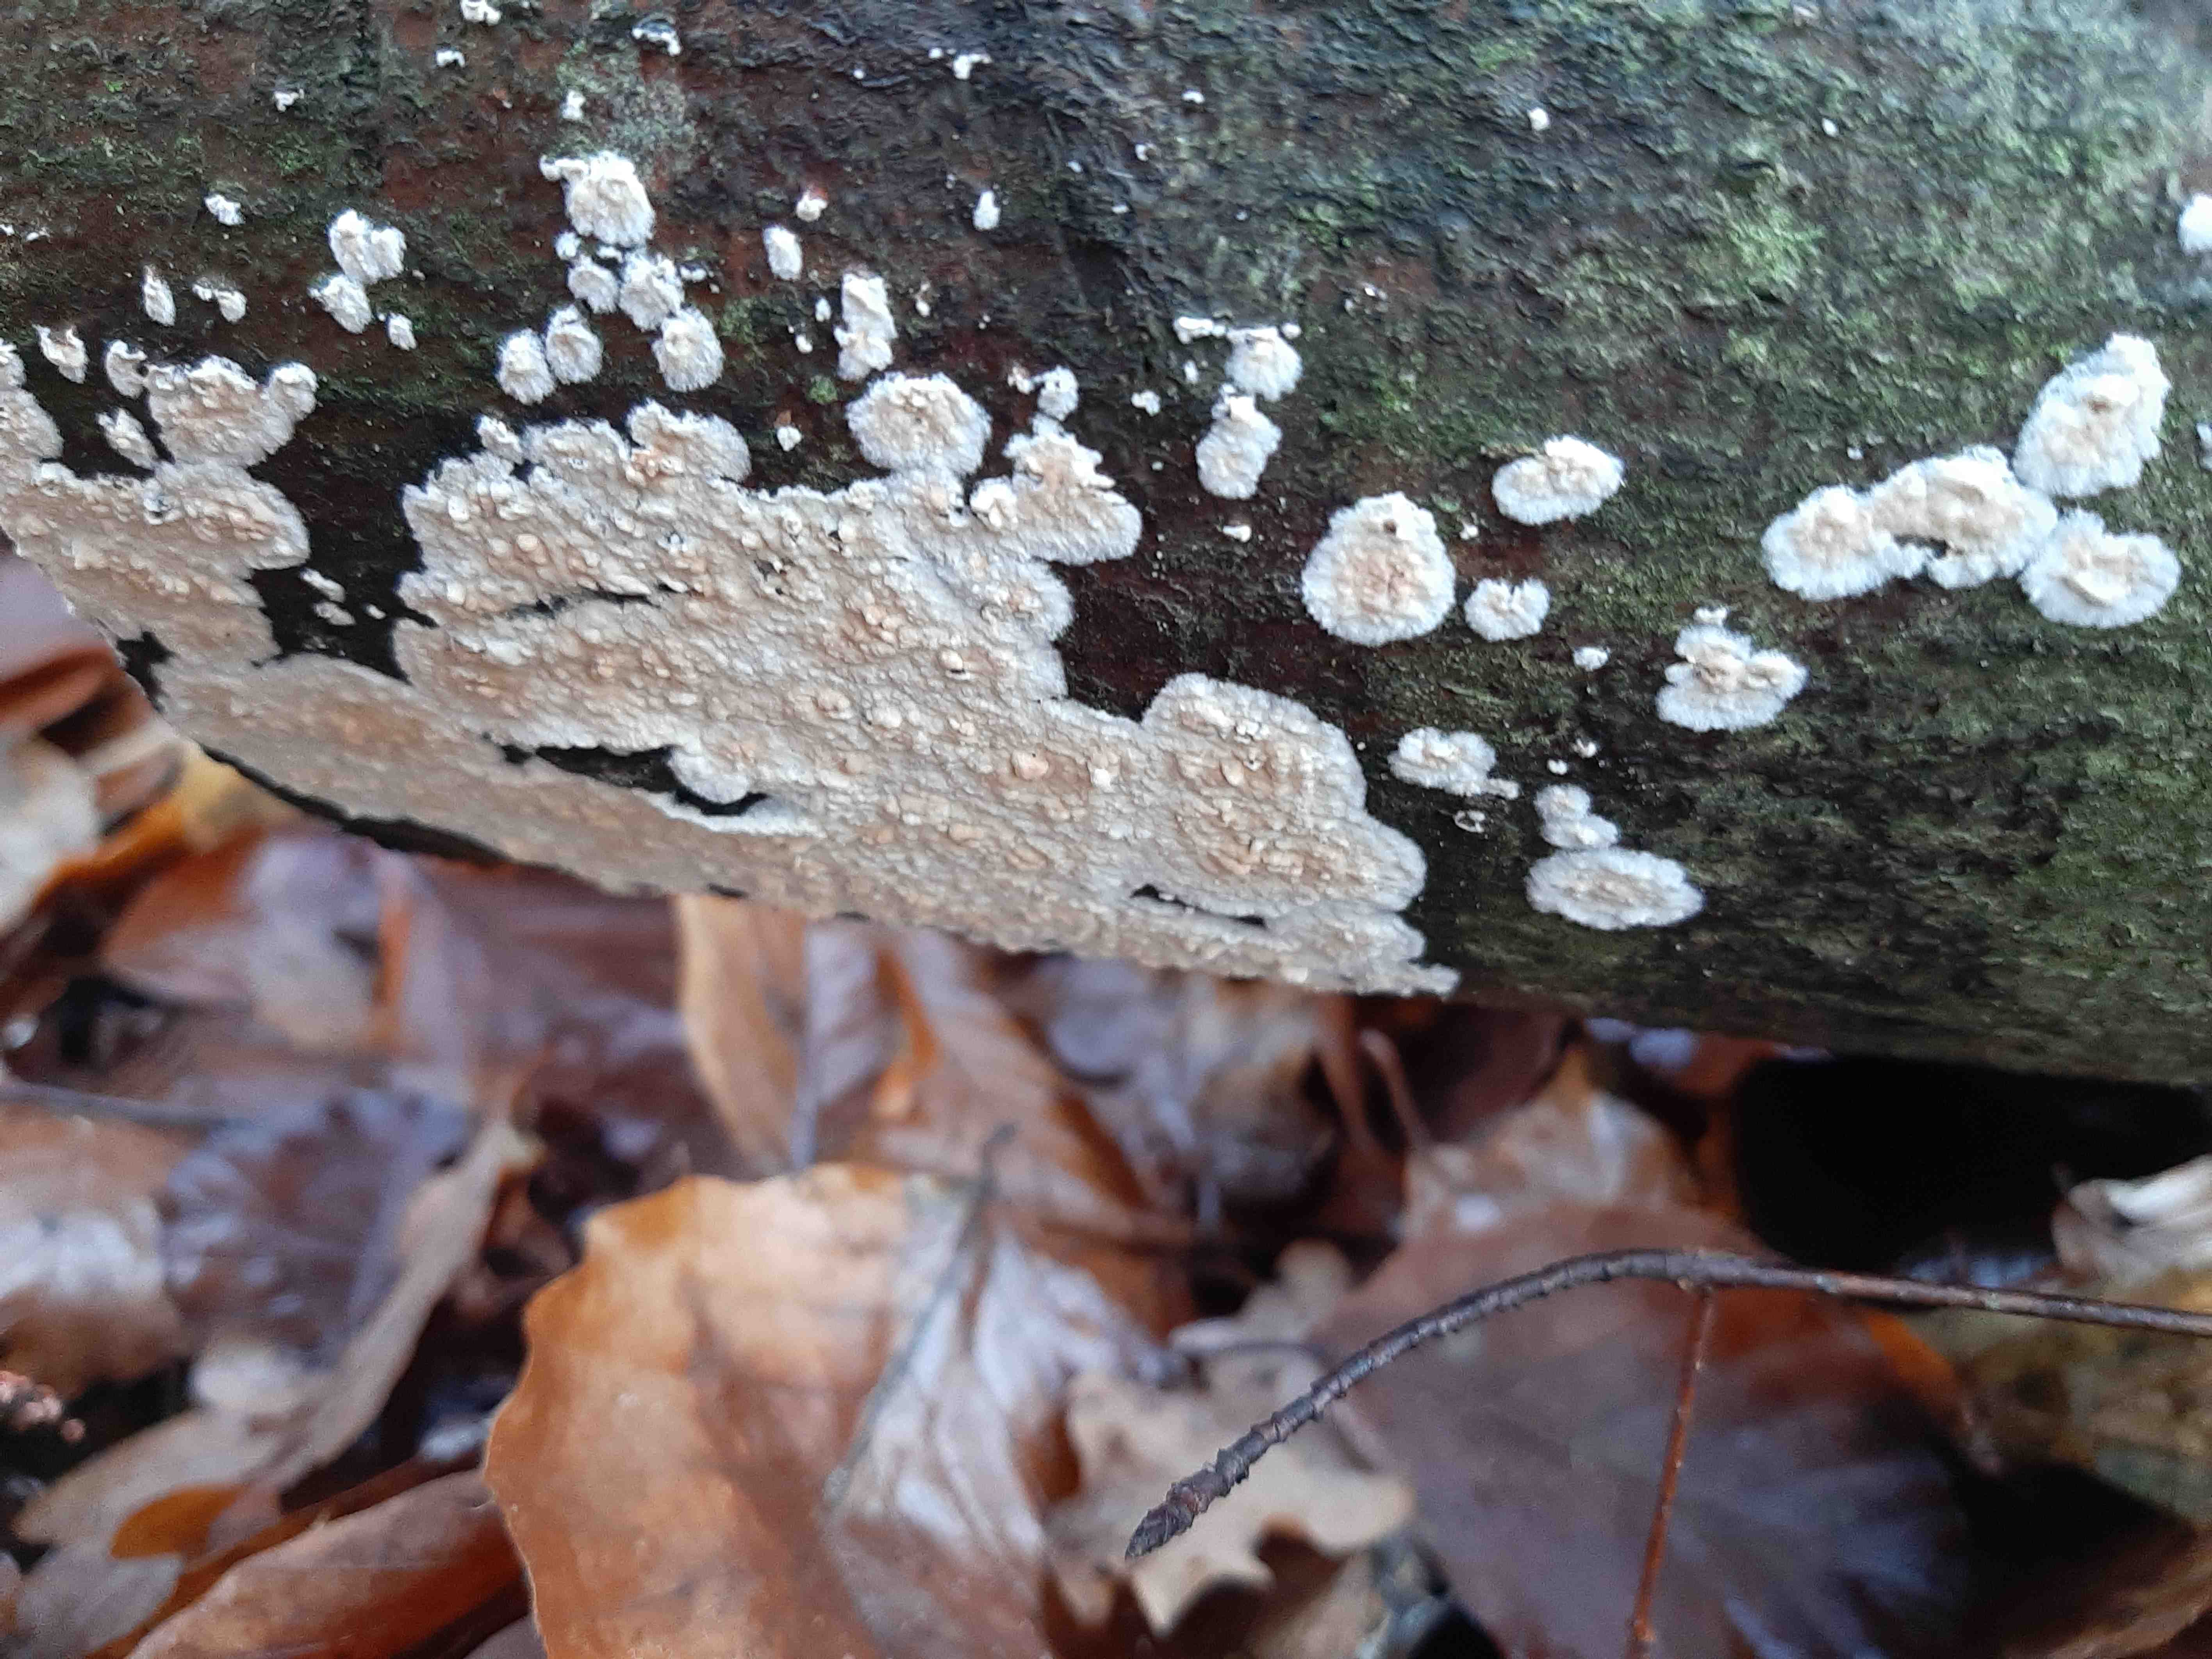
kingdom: Fungi
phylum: Basidiomycota
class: Agaricomycetes
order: Agaricales
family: Physalacriaceae
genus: Cylindrobasidium
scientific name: Cylindrobasidium evolvens
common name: sprækkehinde
